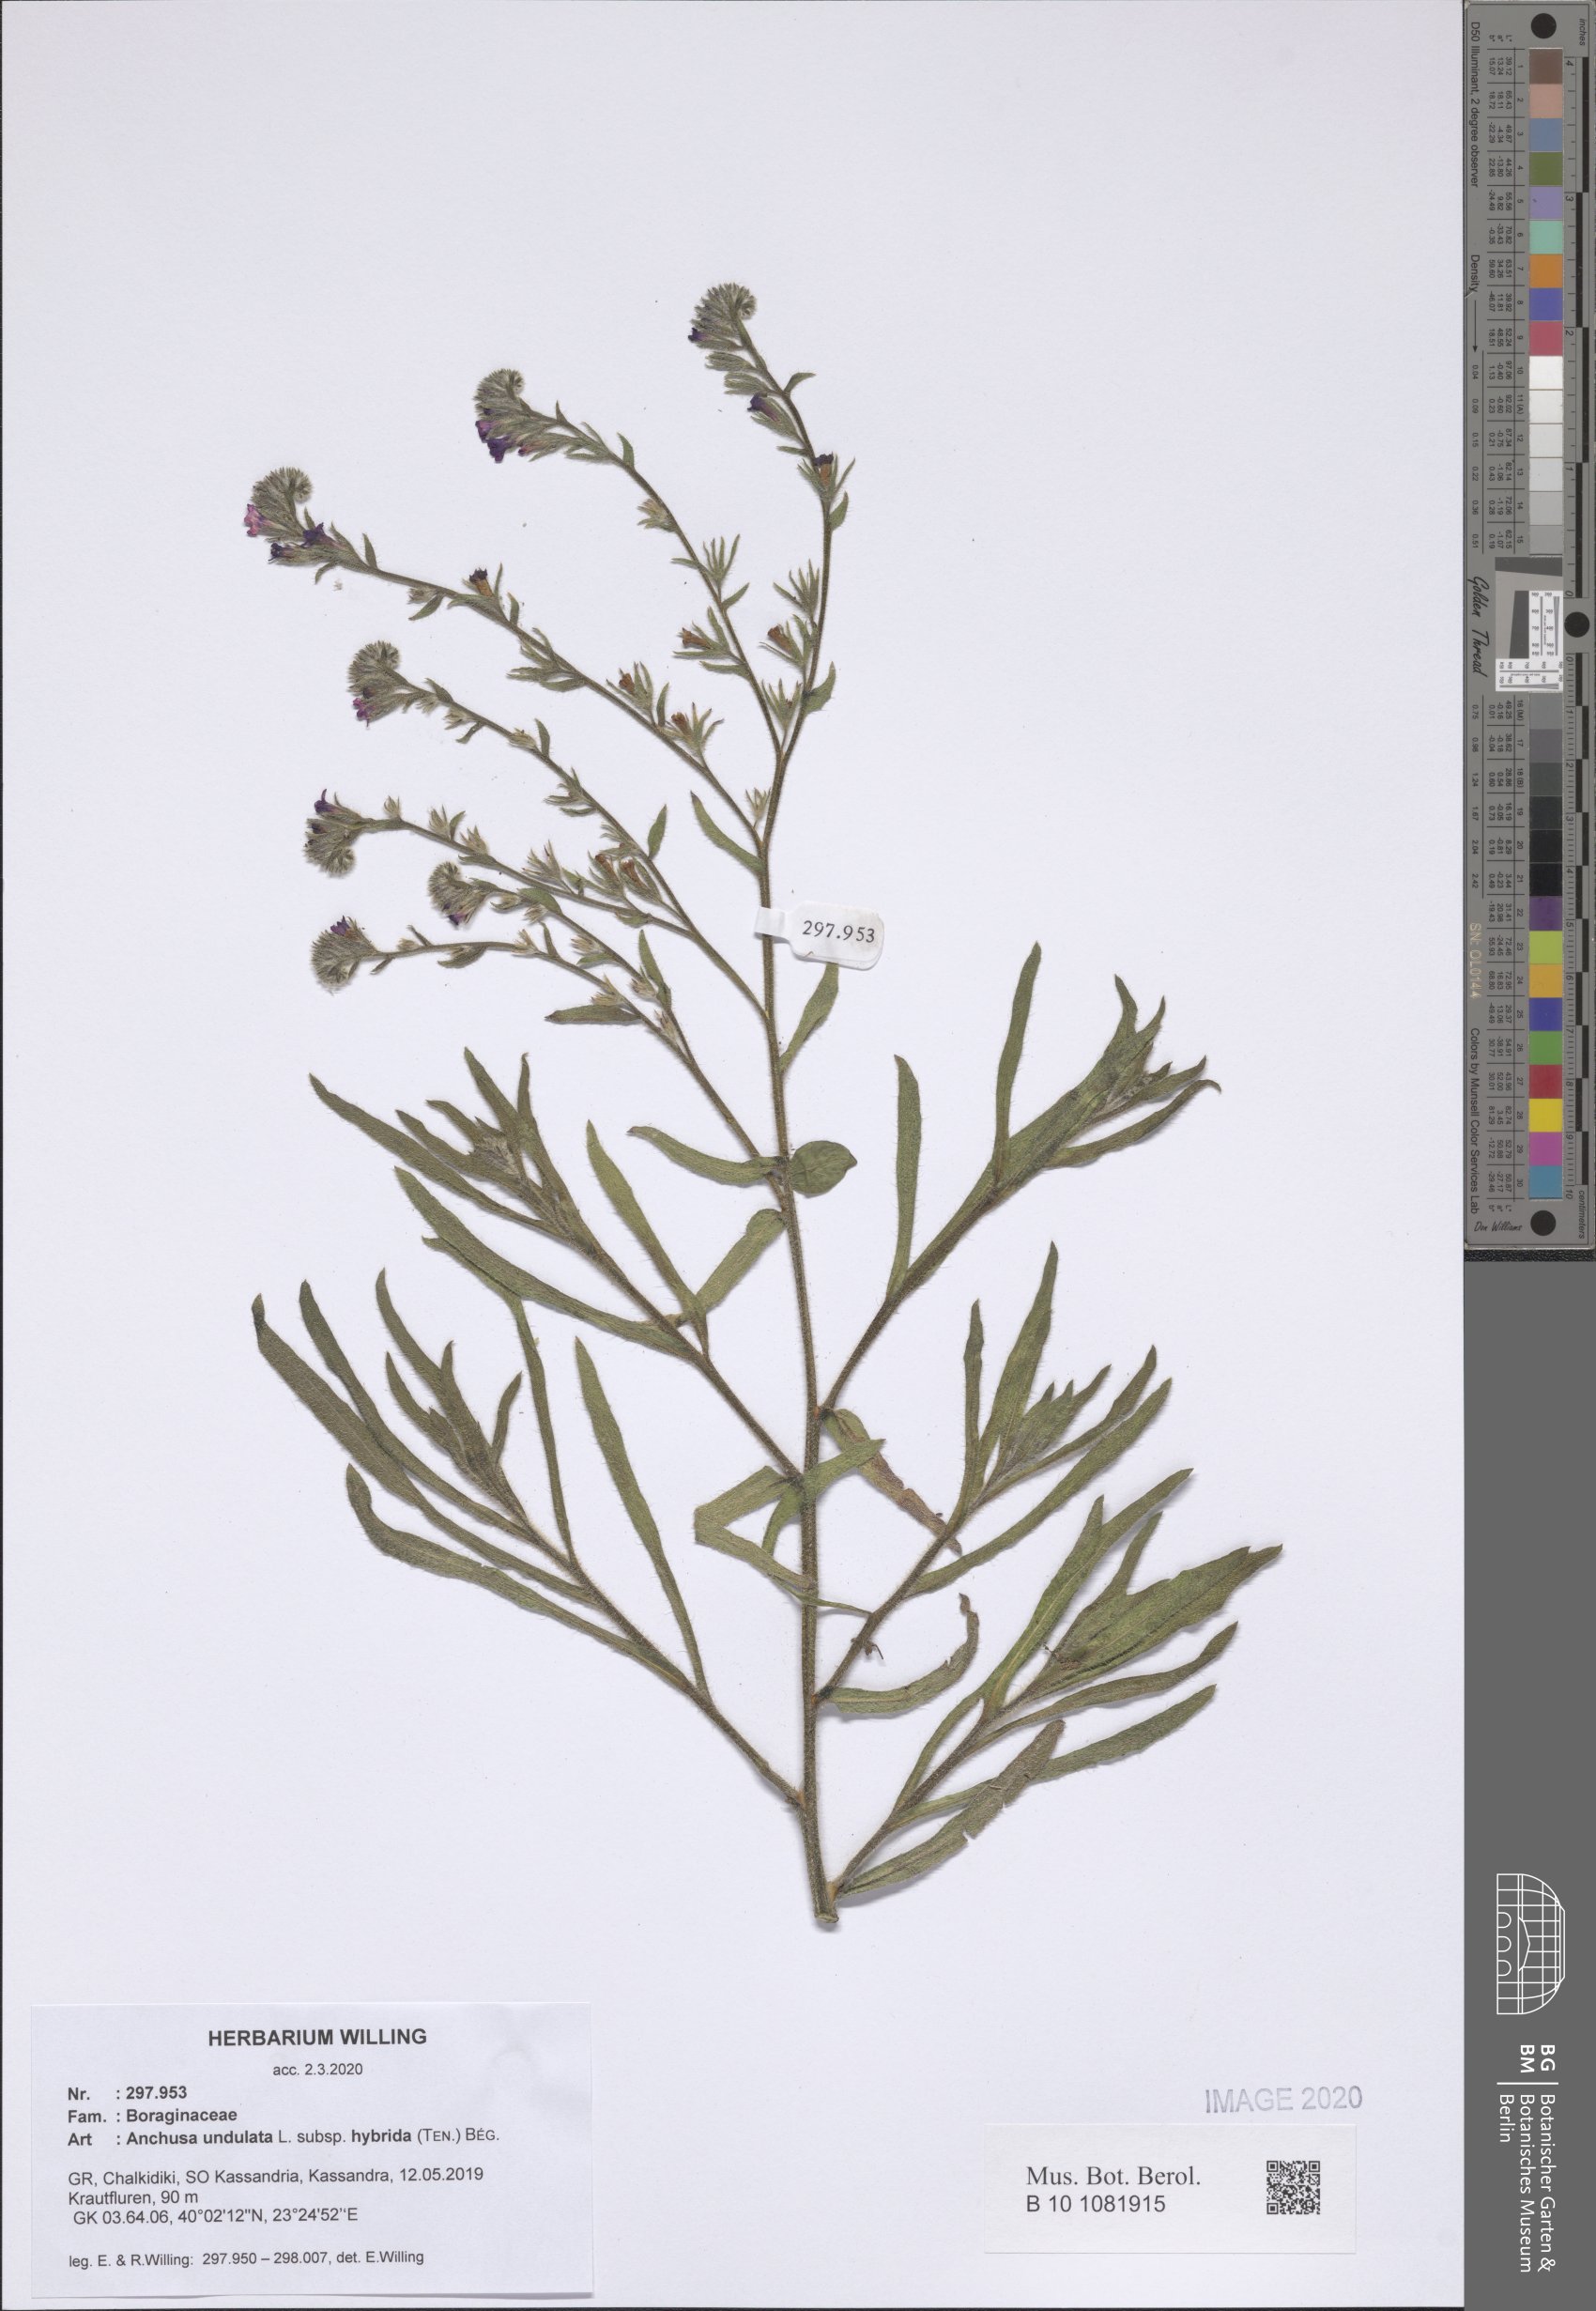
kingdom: Plantae
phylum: Tracheophyta
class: Magnoliopsida
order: Boraginales
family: Boraginaceae
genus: Anchusa
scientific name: Anchusa undulata
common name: Undulate alkanet
